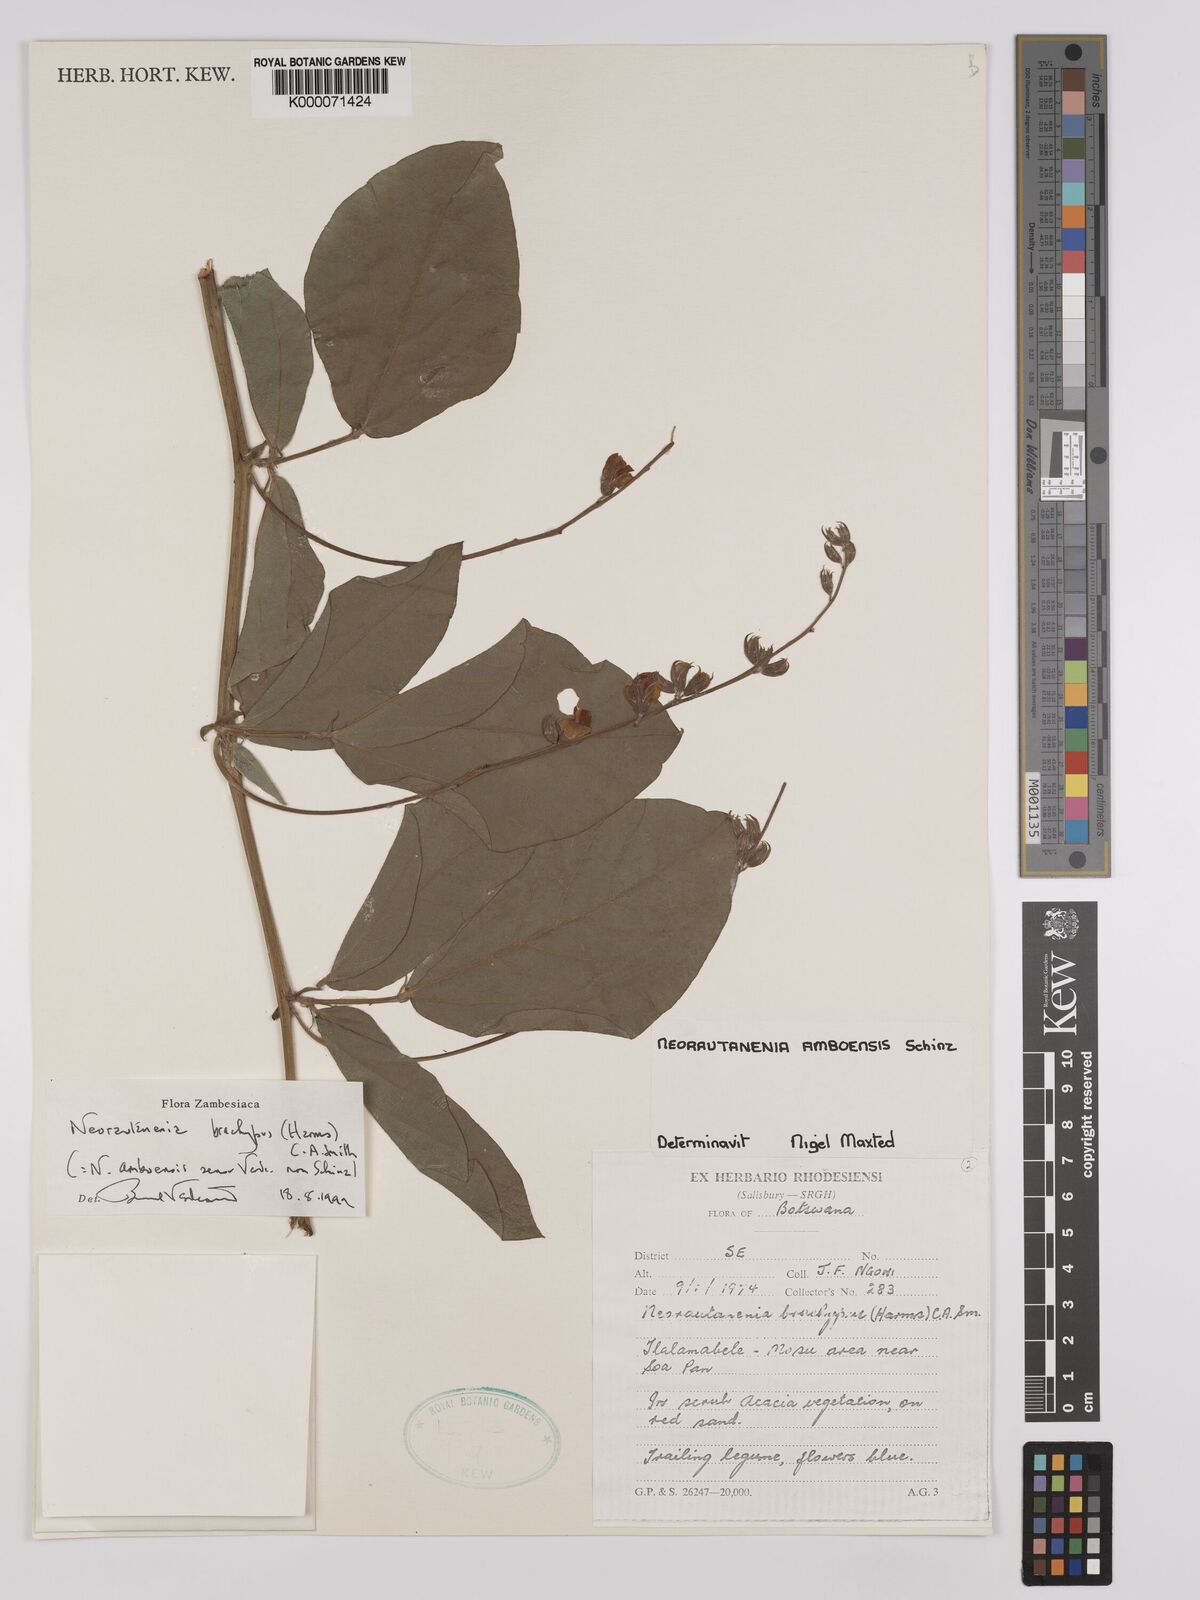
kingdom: Plantae
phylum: Tracheophyta
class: Magnoliopsida
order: Fabales
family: Fabaceae
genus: Neorautanenia
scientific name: Neorautanenia
